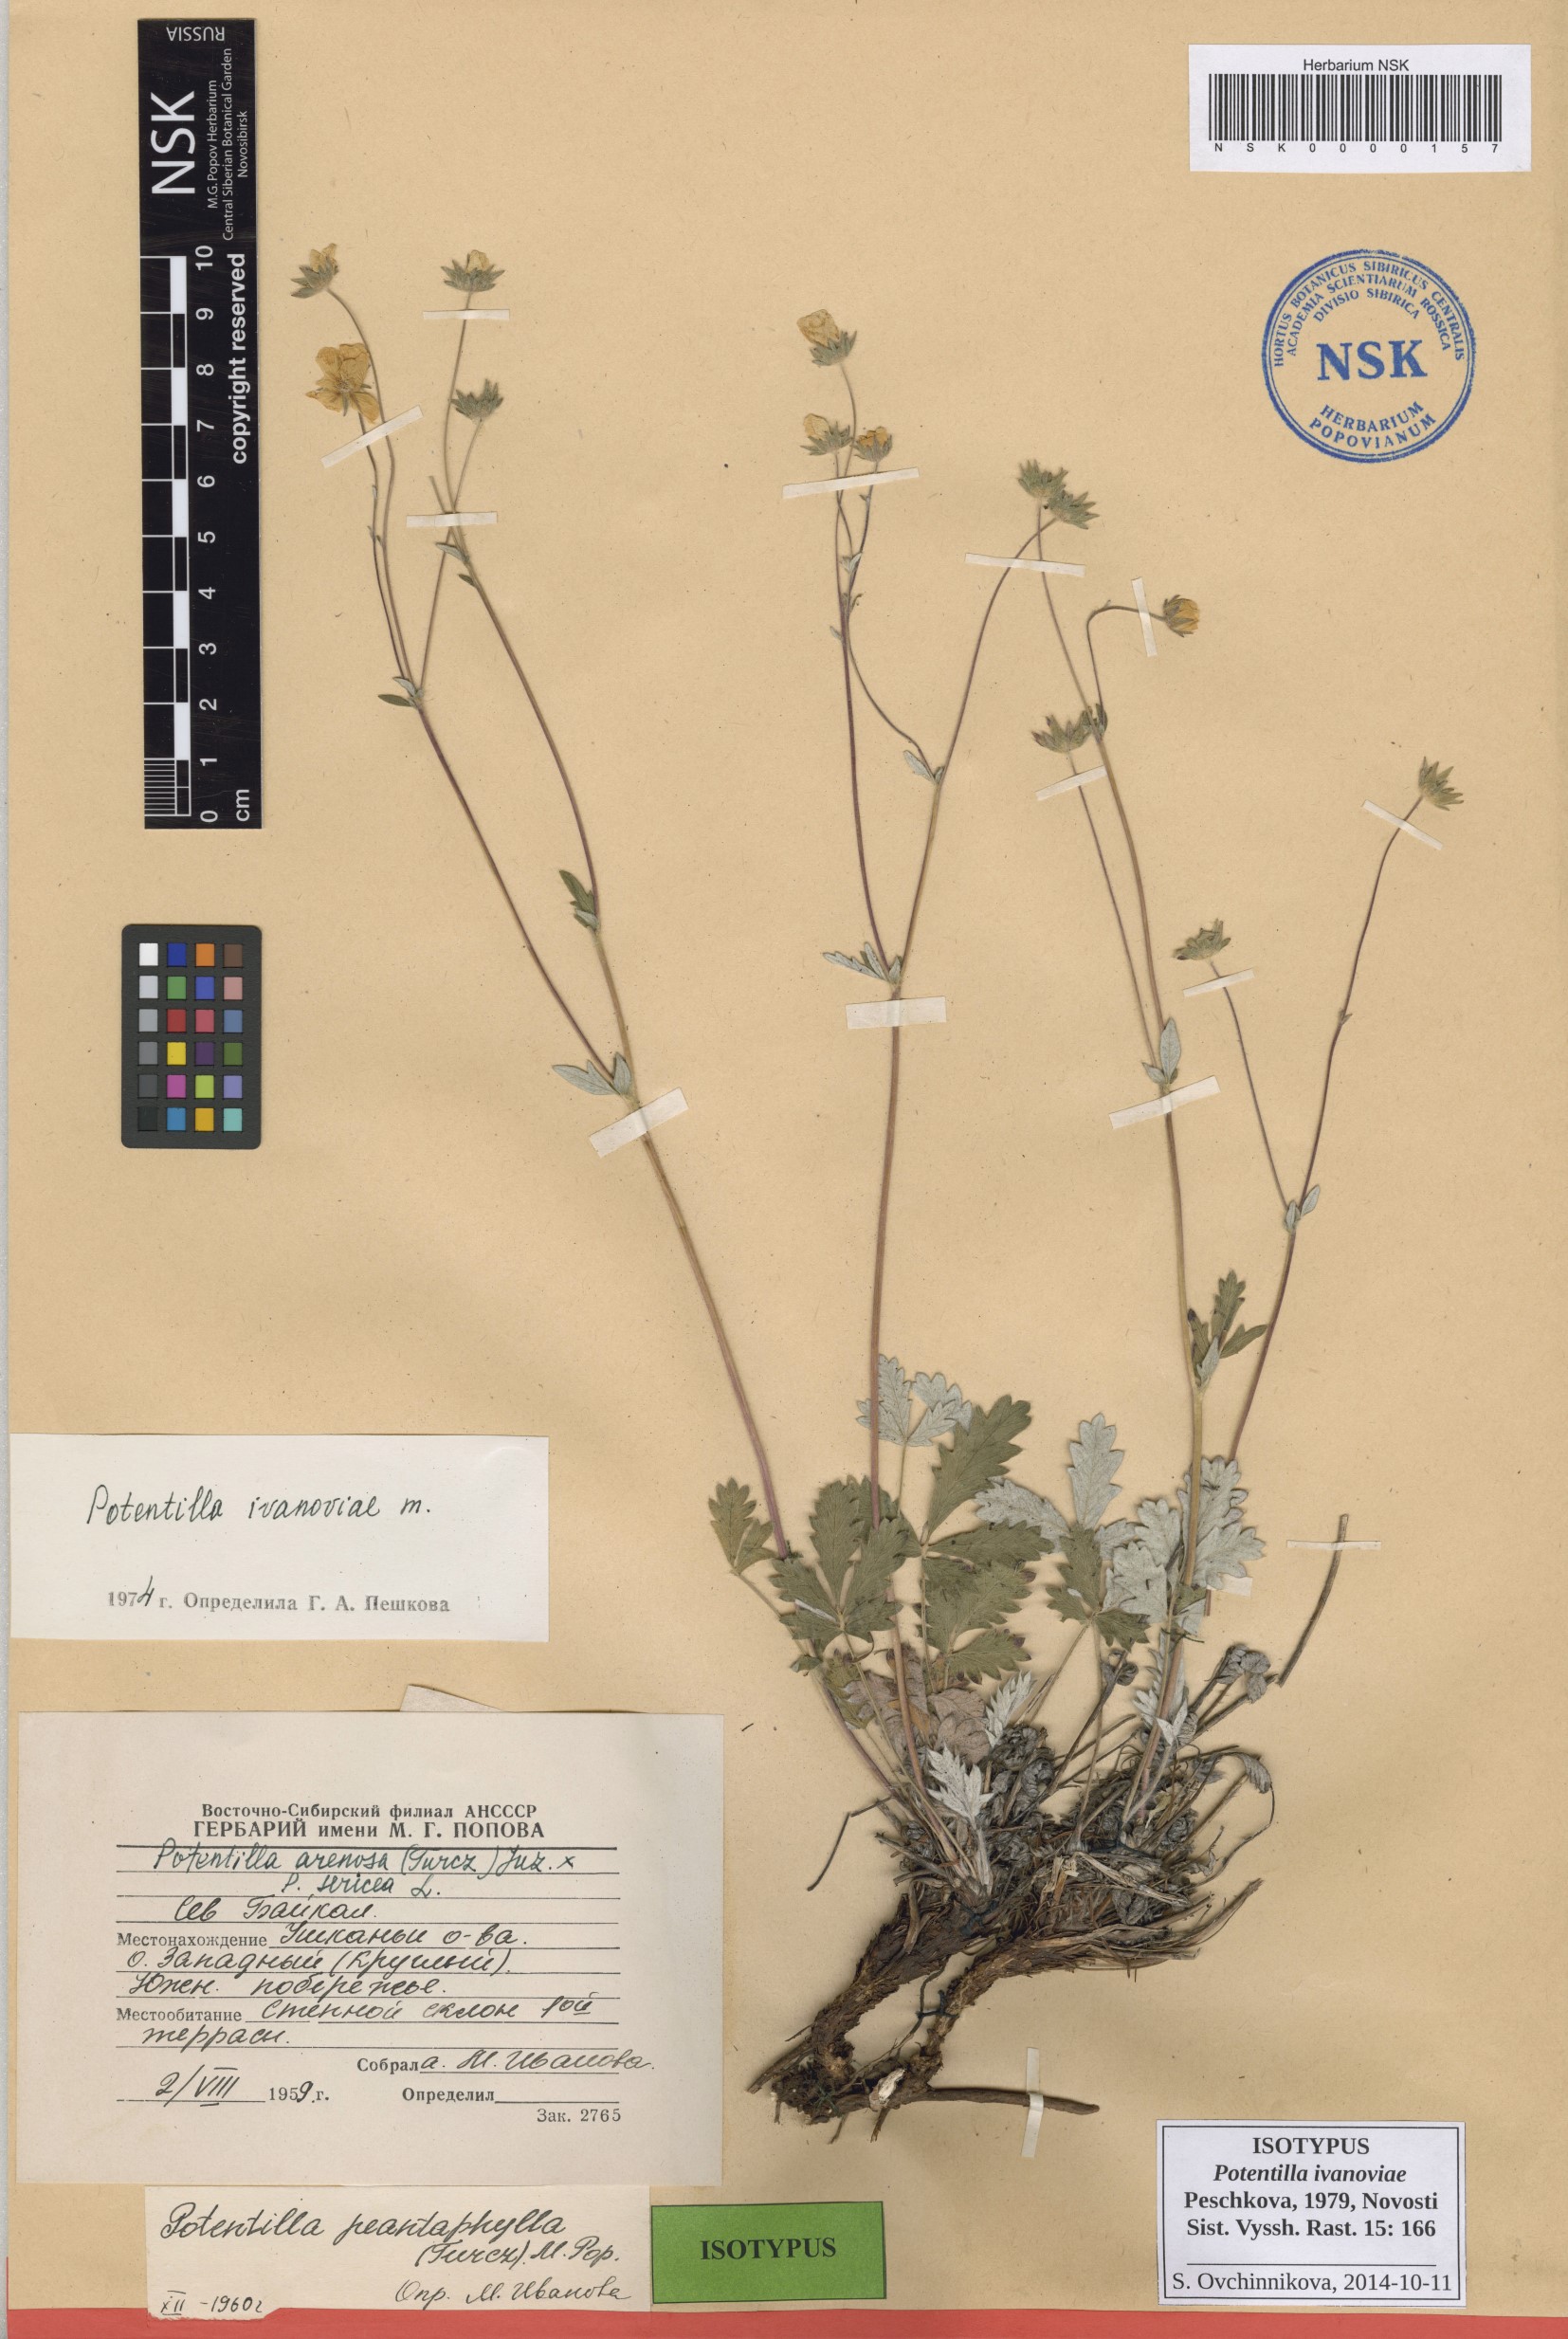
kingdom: Plantae
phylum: Tracheophyta
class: Magnoliopsida
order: Rosales
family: Rosaceae
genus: Potentilla
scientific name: Potentilla ivanoviae
